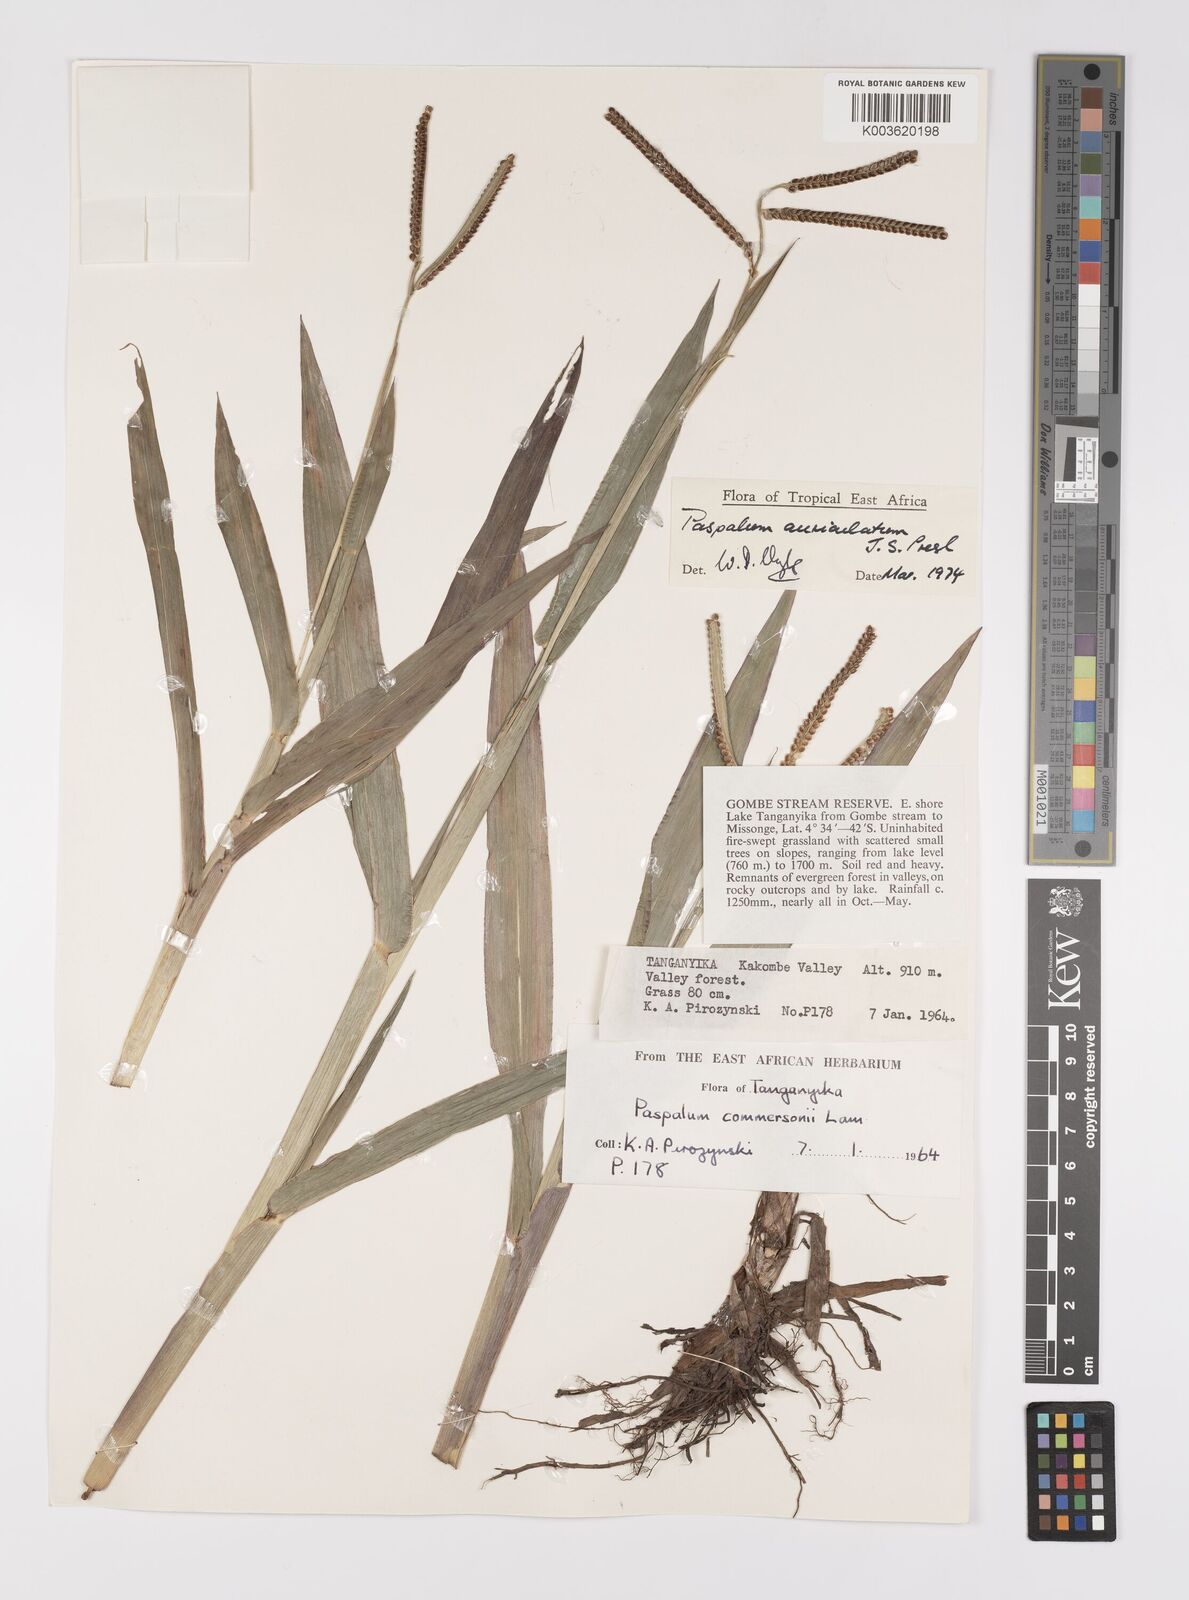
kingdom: Plantae
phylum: Tracheophyta
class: Liliopsida
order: Poales
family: Poaceae
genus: Paspalum
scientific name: Paspalum lamprocaryon
